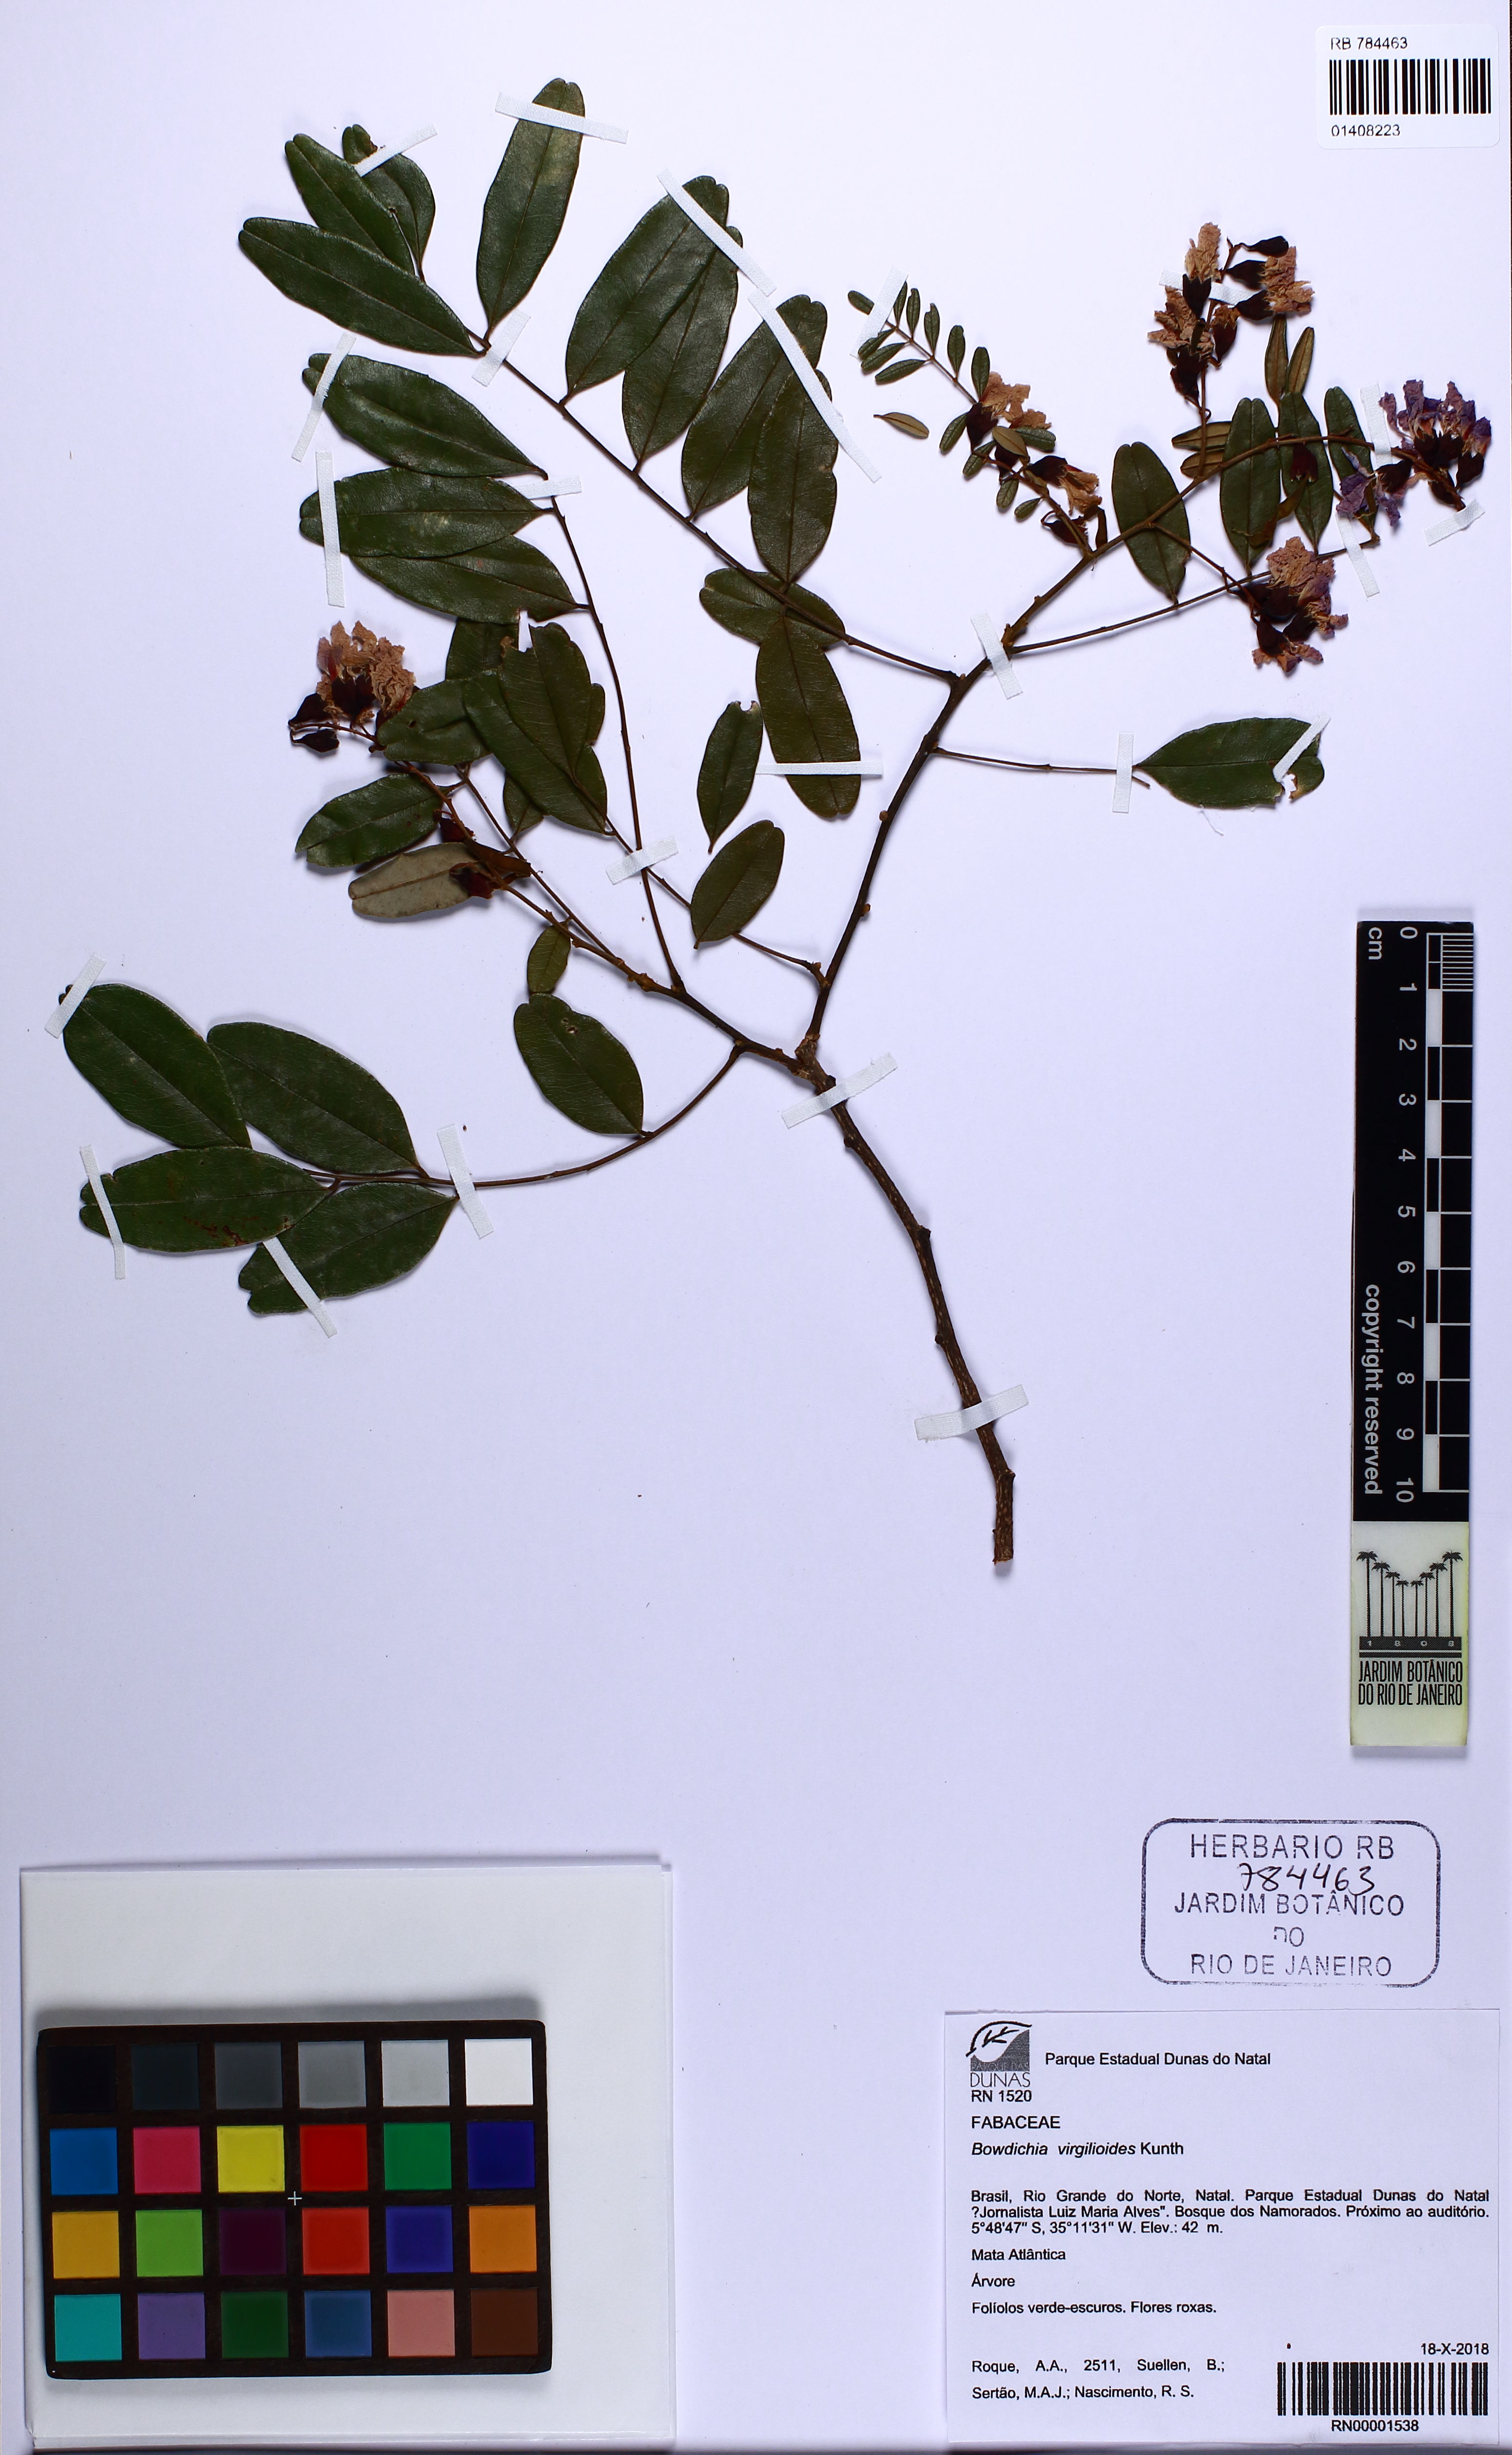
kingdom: Plantae
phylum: Tracheophyta
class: Magnoliopsida
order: Fabales
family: Fabaceae
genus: Bowdichia
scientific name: Bowdichia virgilioides
